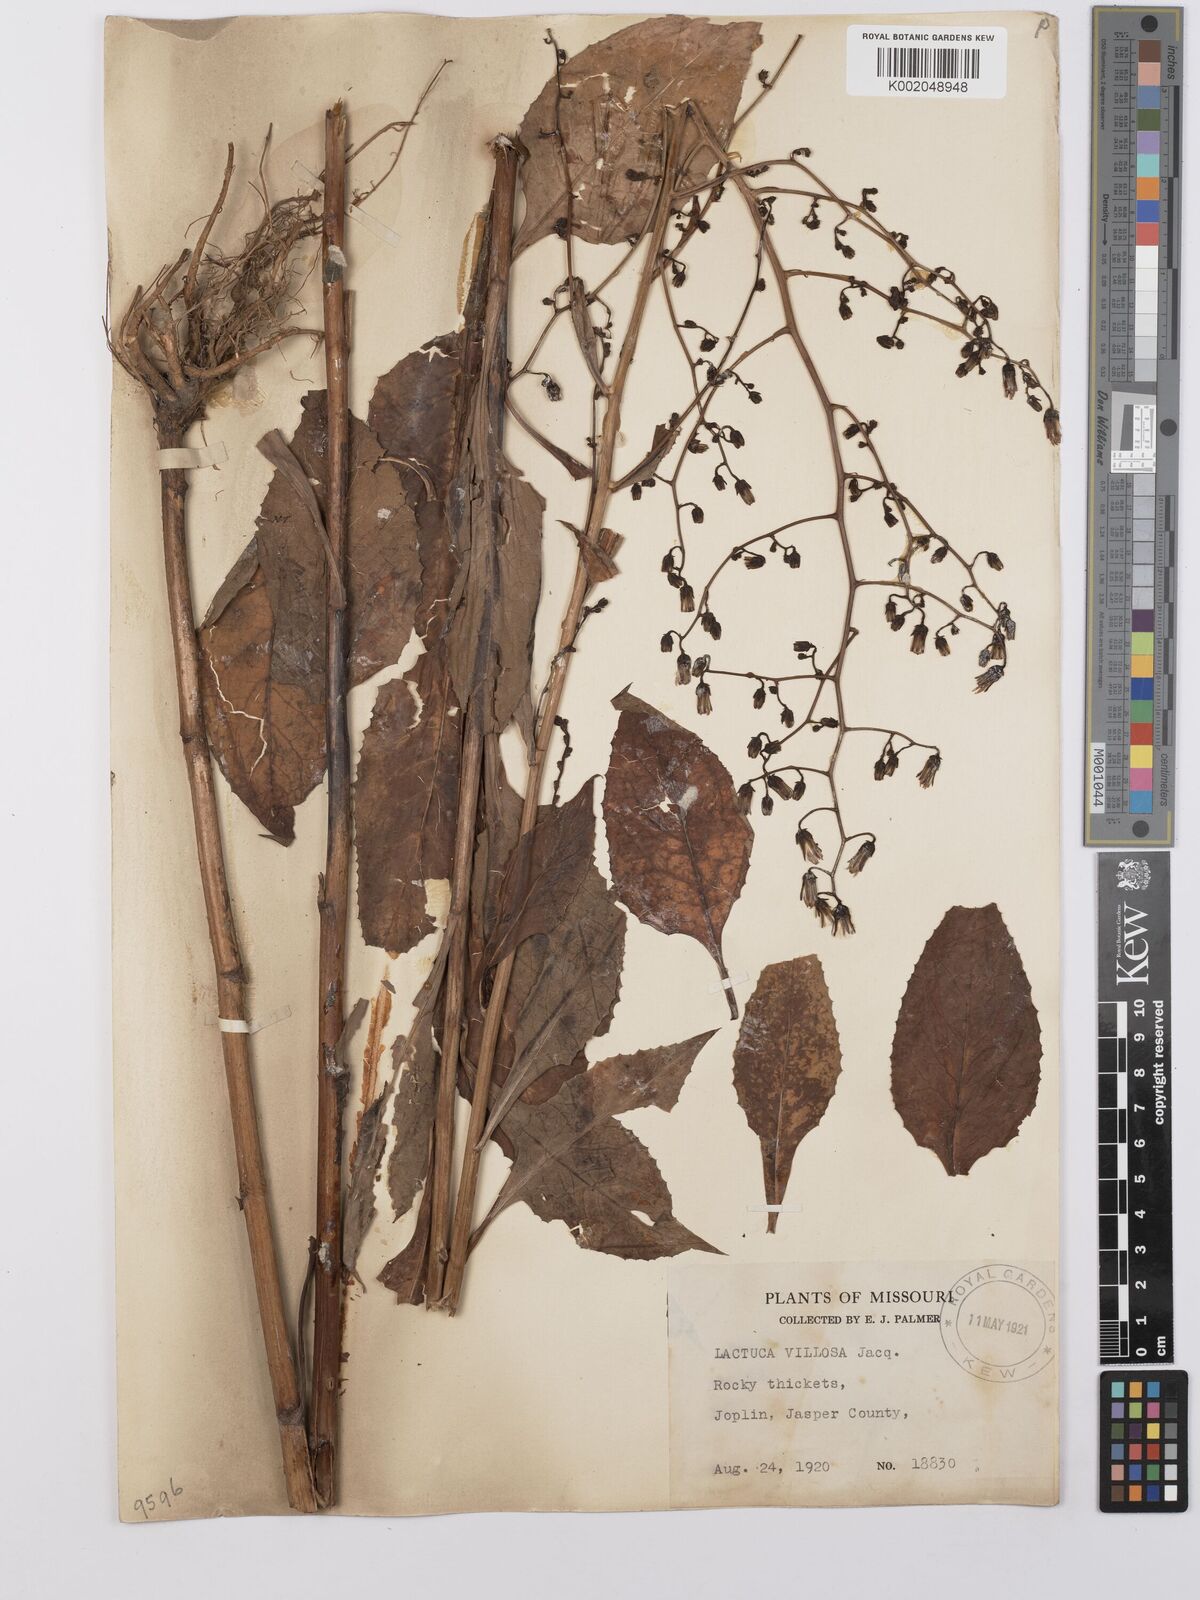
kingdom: Plantae
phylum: Tracheophyta
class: Magnoliopsida
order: Asterales
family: Asteraceae
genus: Lactuca
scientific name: Lactuca floridana
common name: Woodland lettuce
